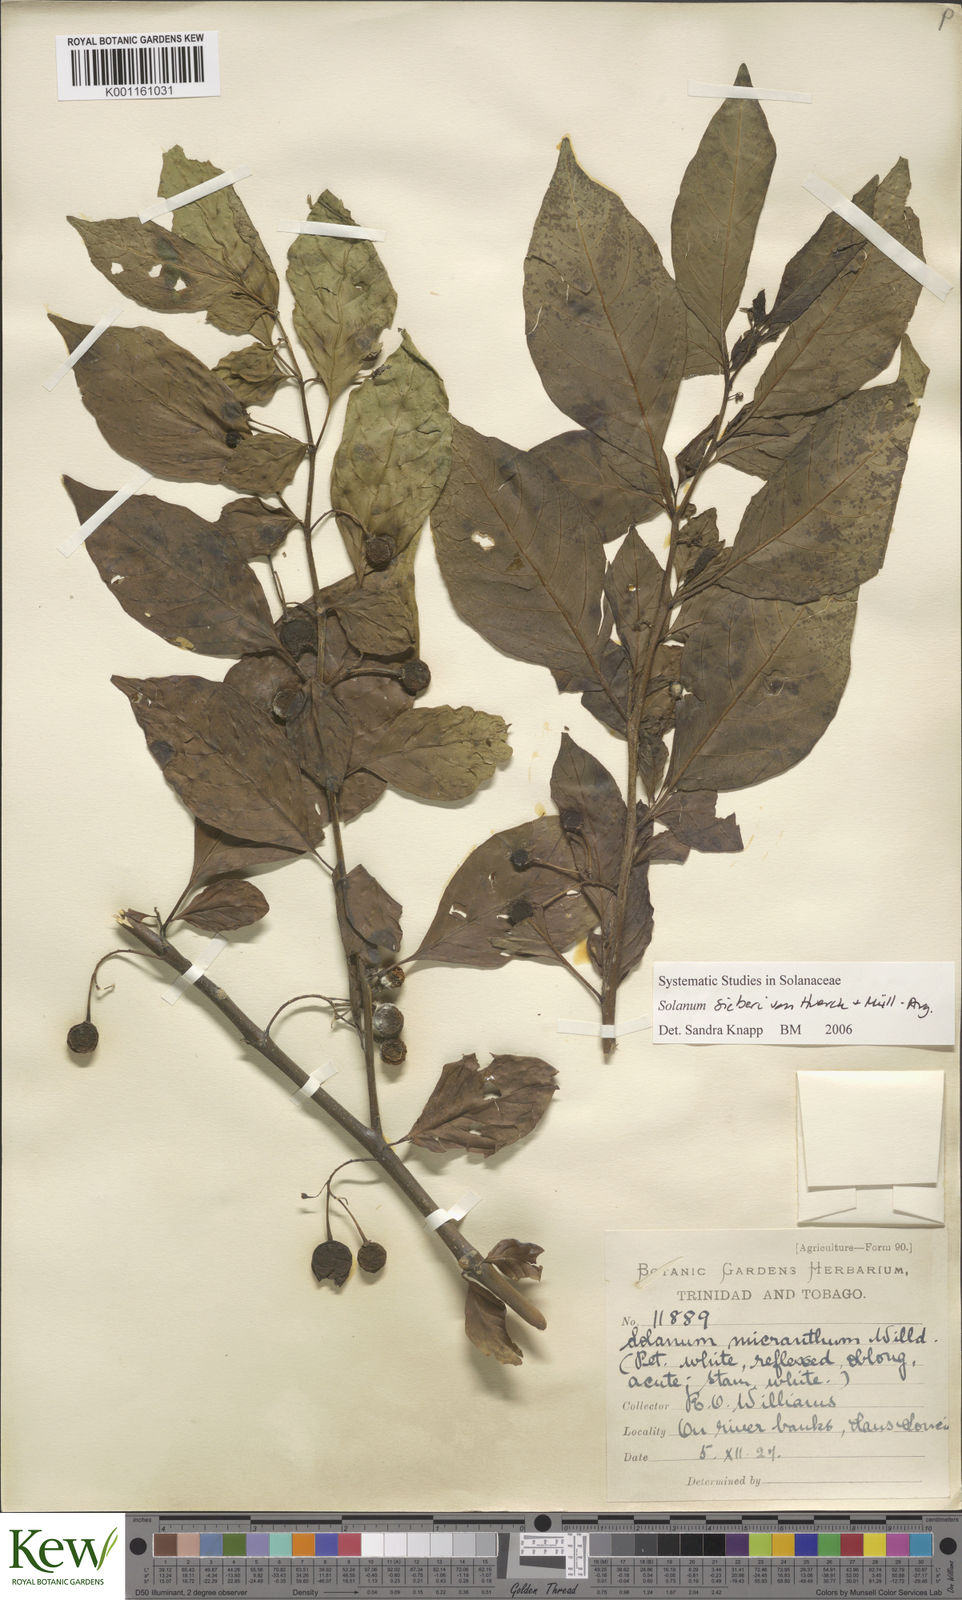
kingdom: Plantae
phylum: Tracheophyta
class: Magnoliopsida
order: Solanales
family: Solanaceae
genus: Solanum
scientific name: Solanum nudum
